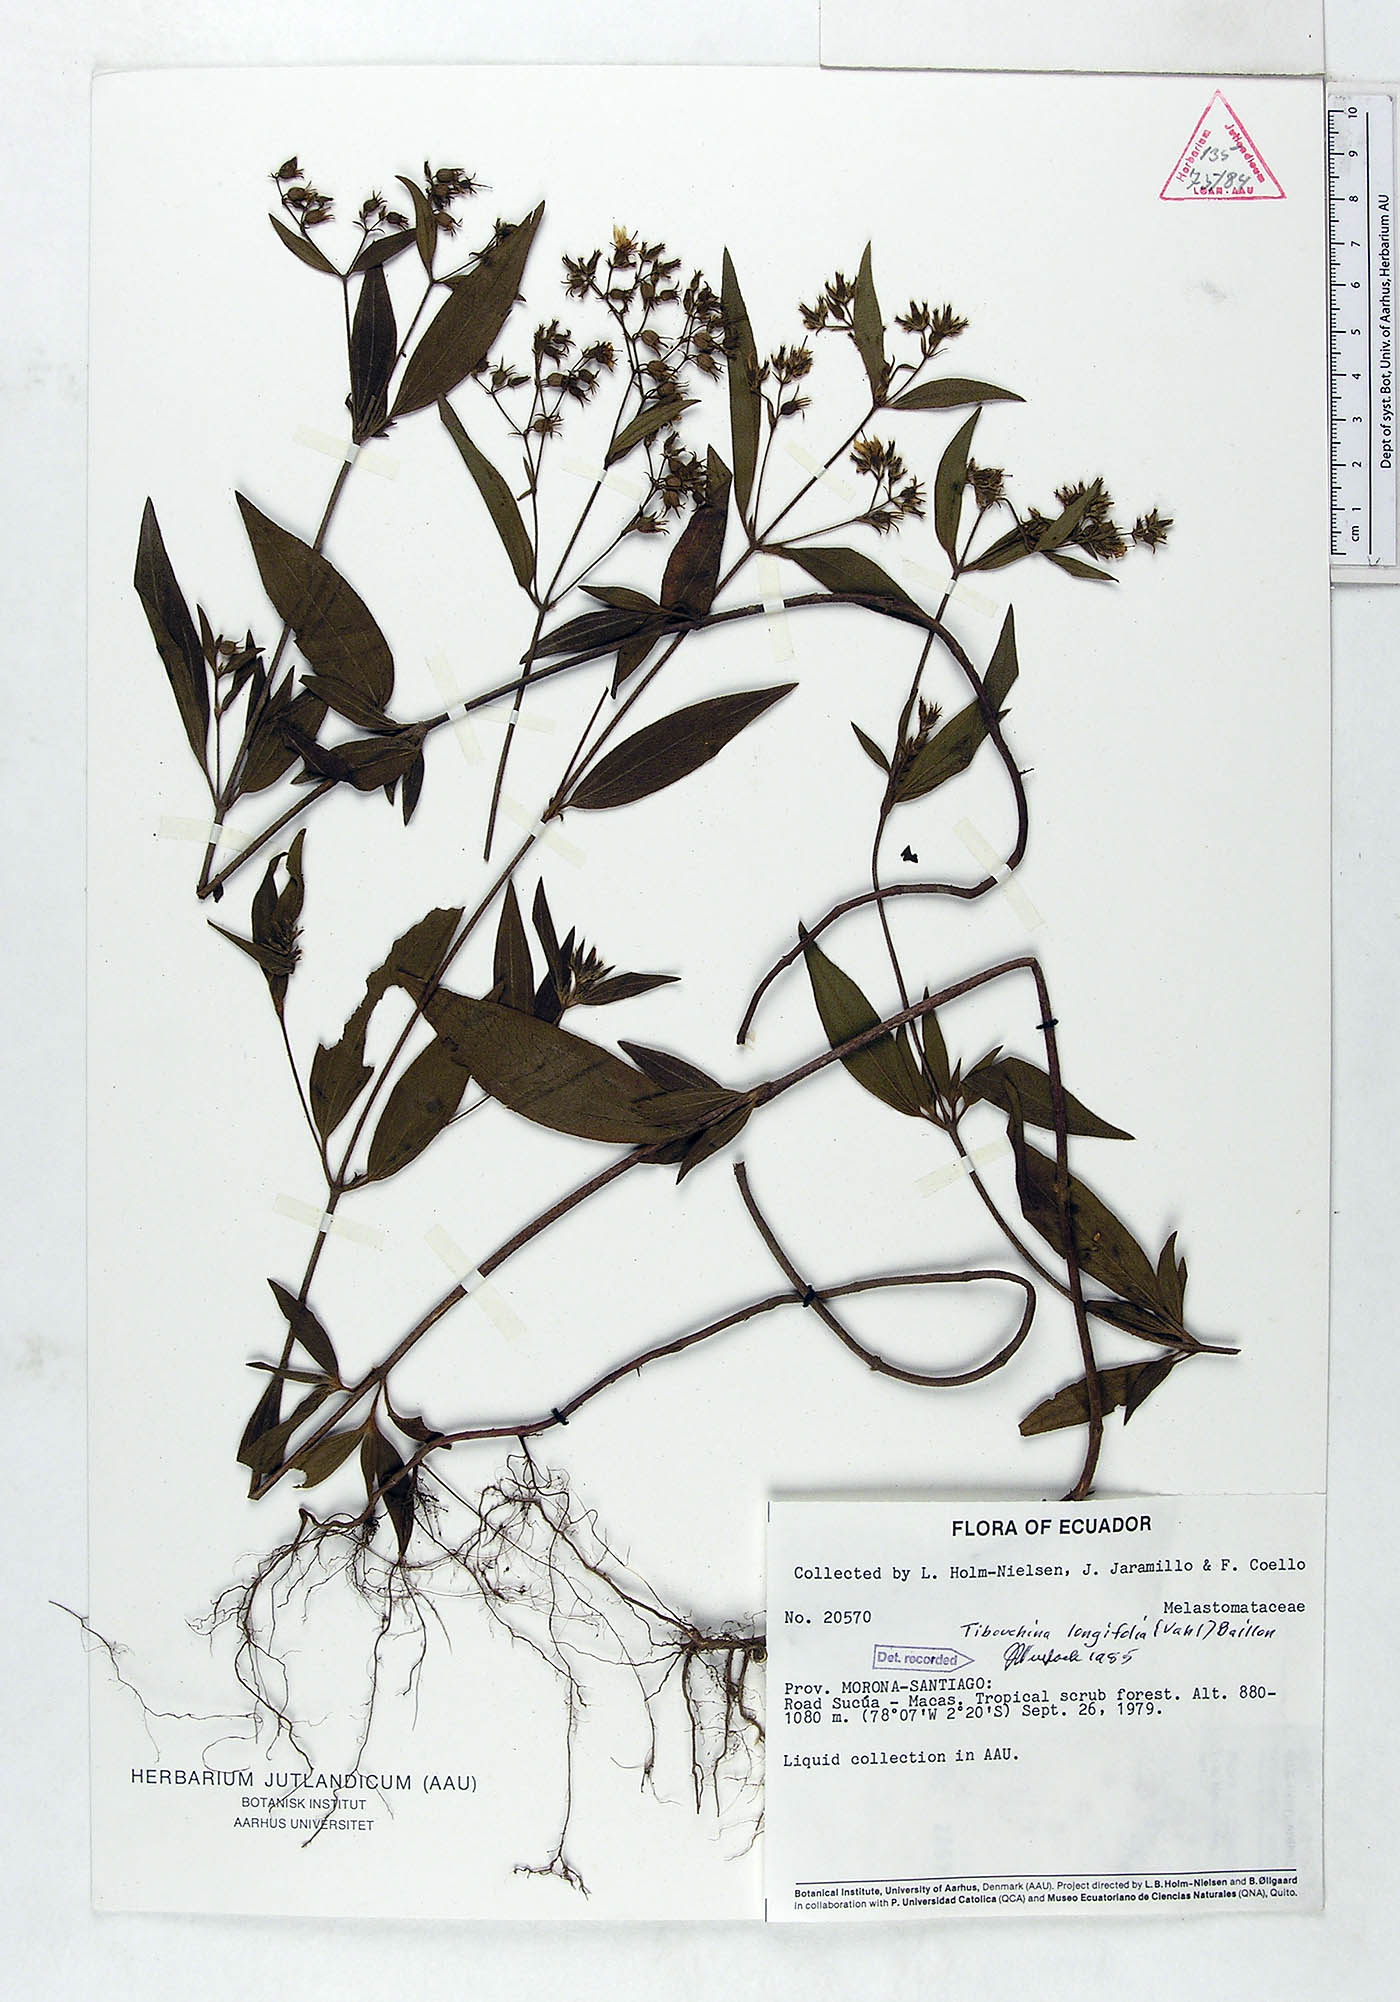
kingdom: Plantae
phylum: Tracheophyta
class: Magnoliopsida
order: Myrtales
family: Melastomataceae
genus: Chaetogastra
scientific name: Chaetogastra longifolia
